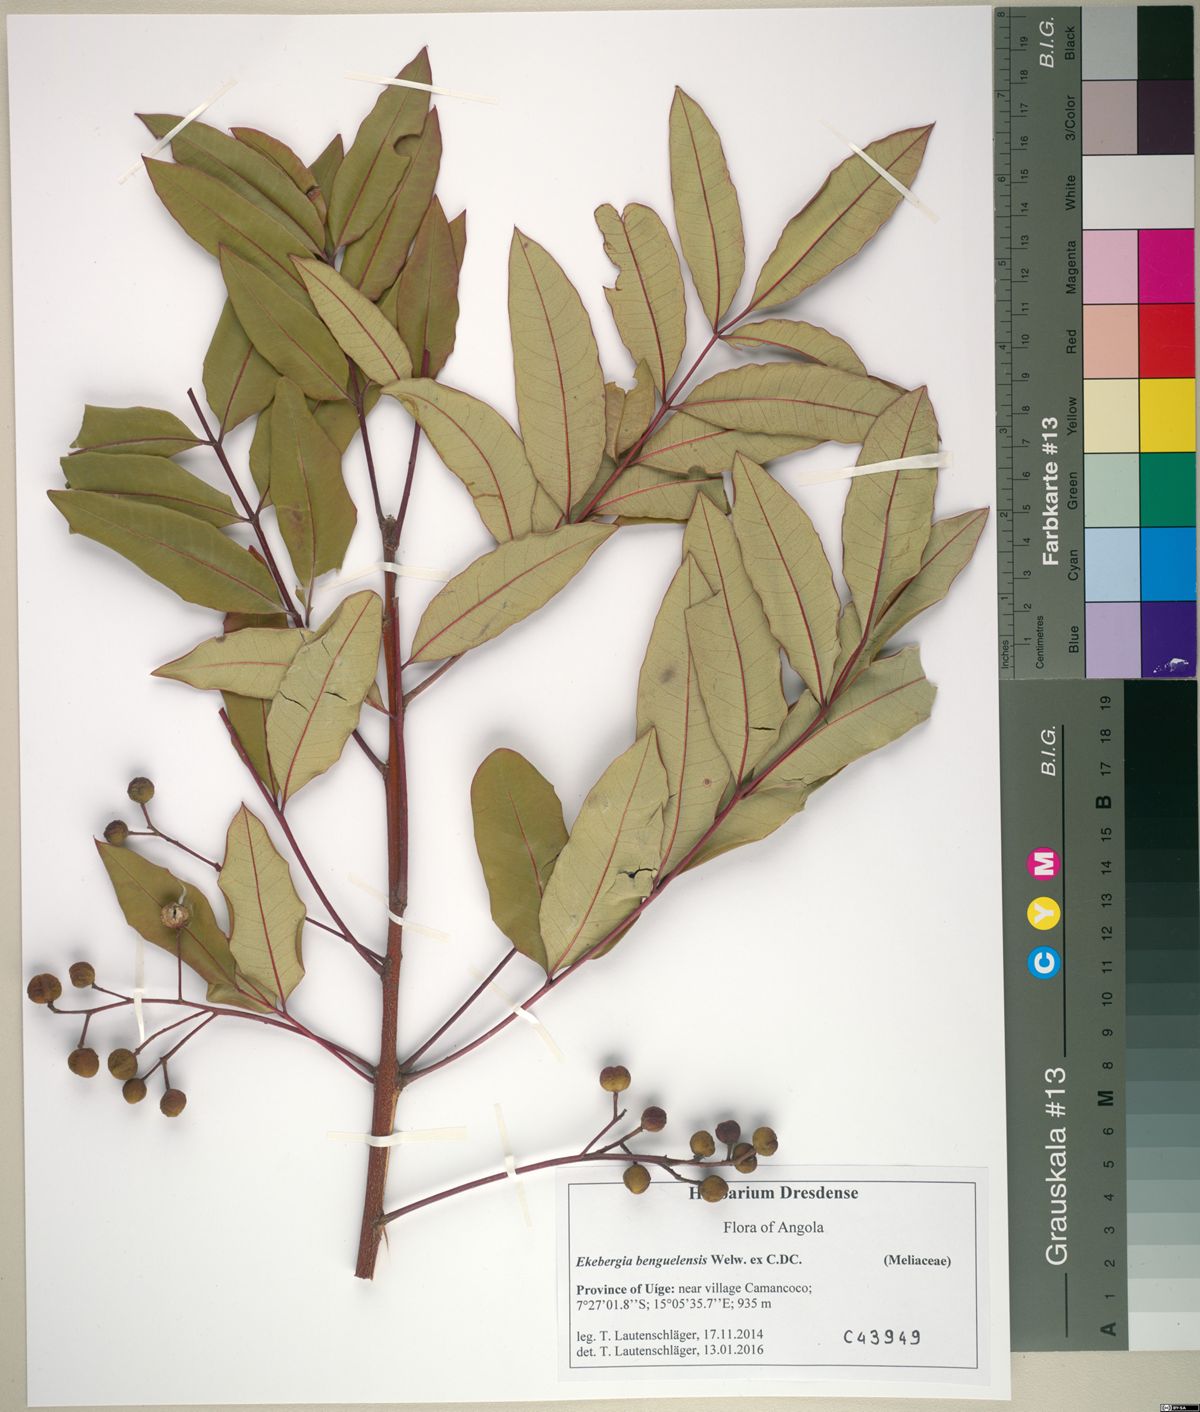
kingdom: Plantae
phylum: Tracheophyta
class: Magnoliopsida
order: Sapindales
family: Meliaceae
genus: Ekebergia
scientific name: Ekebergia benguelensis
